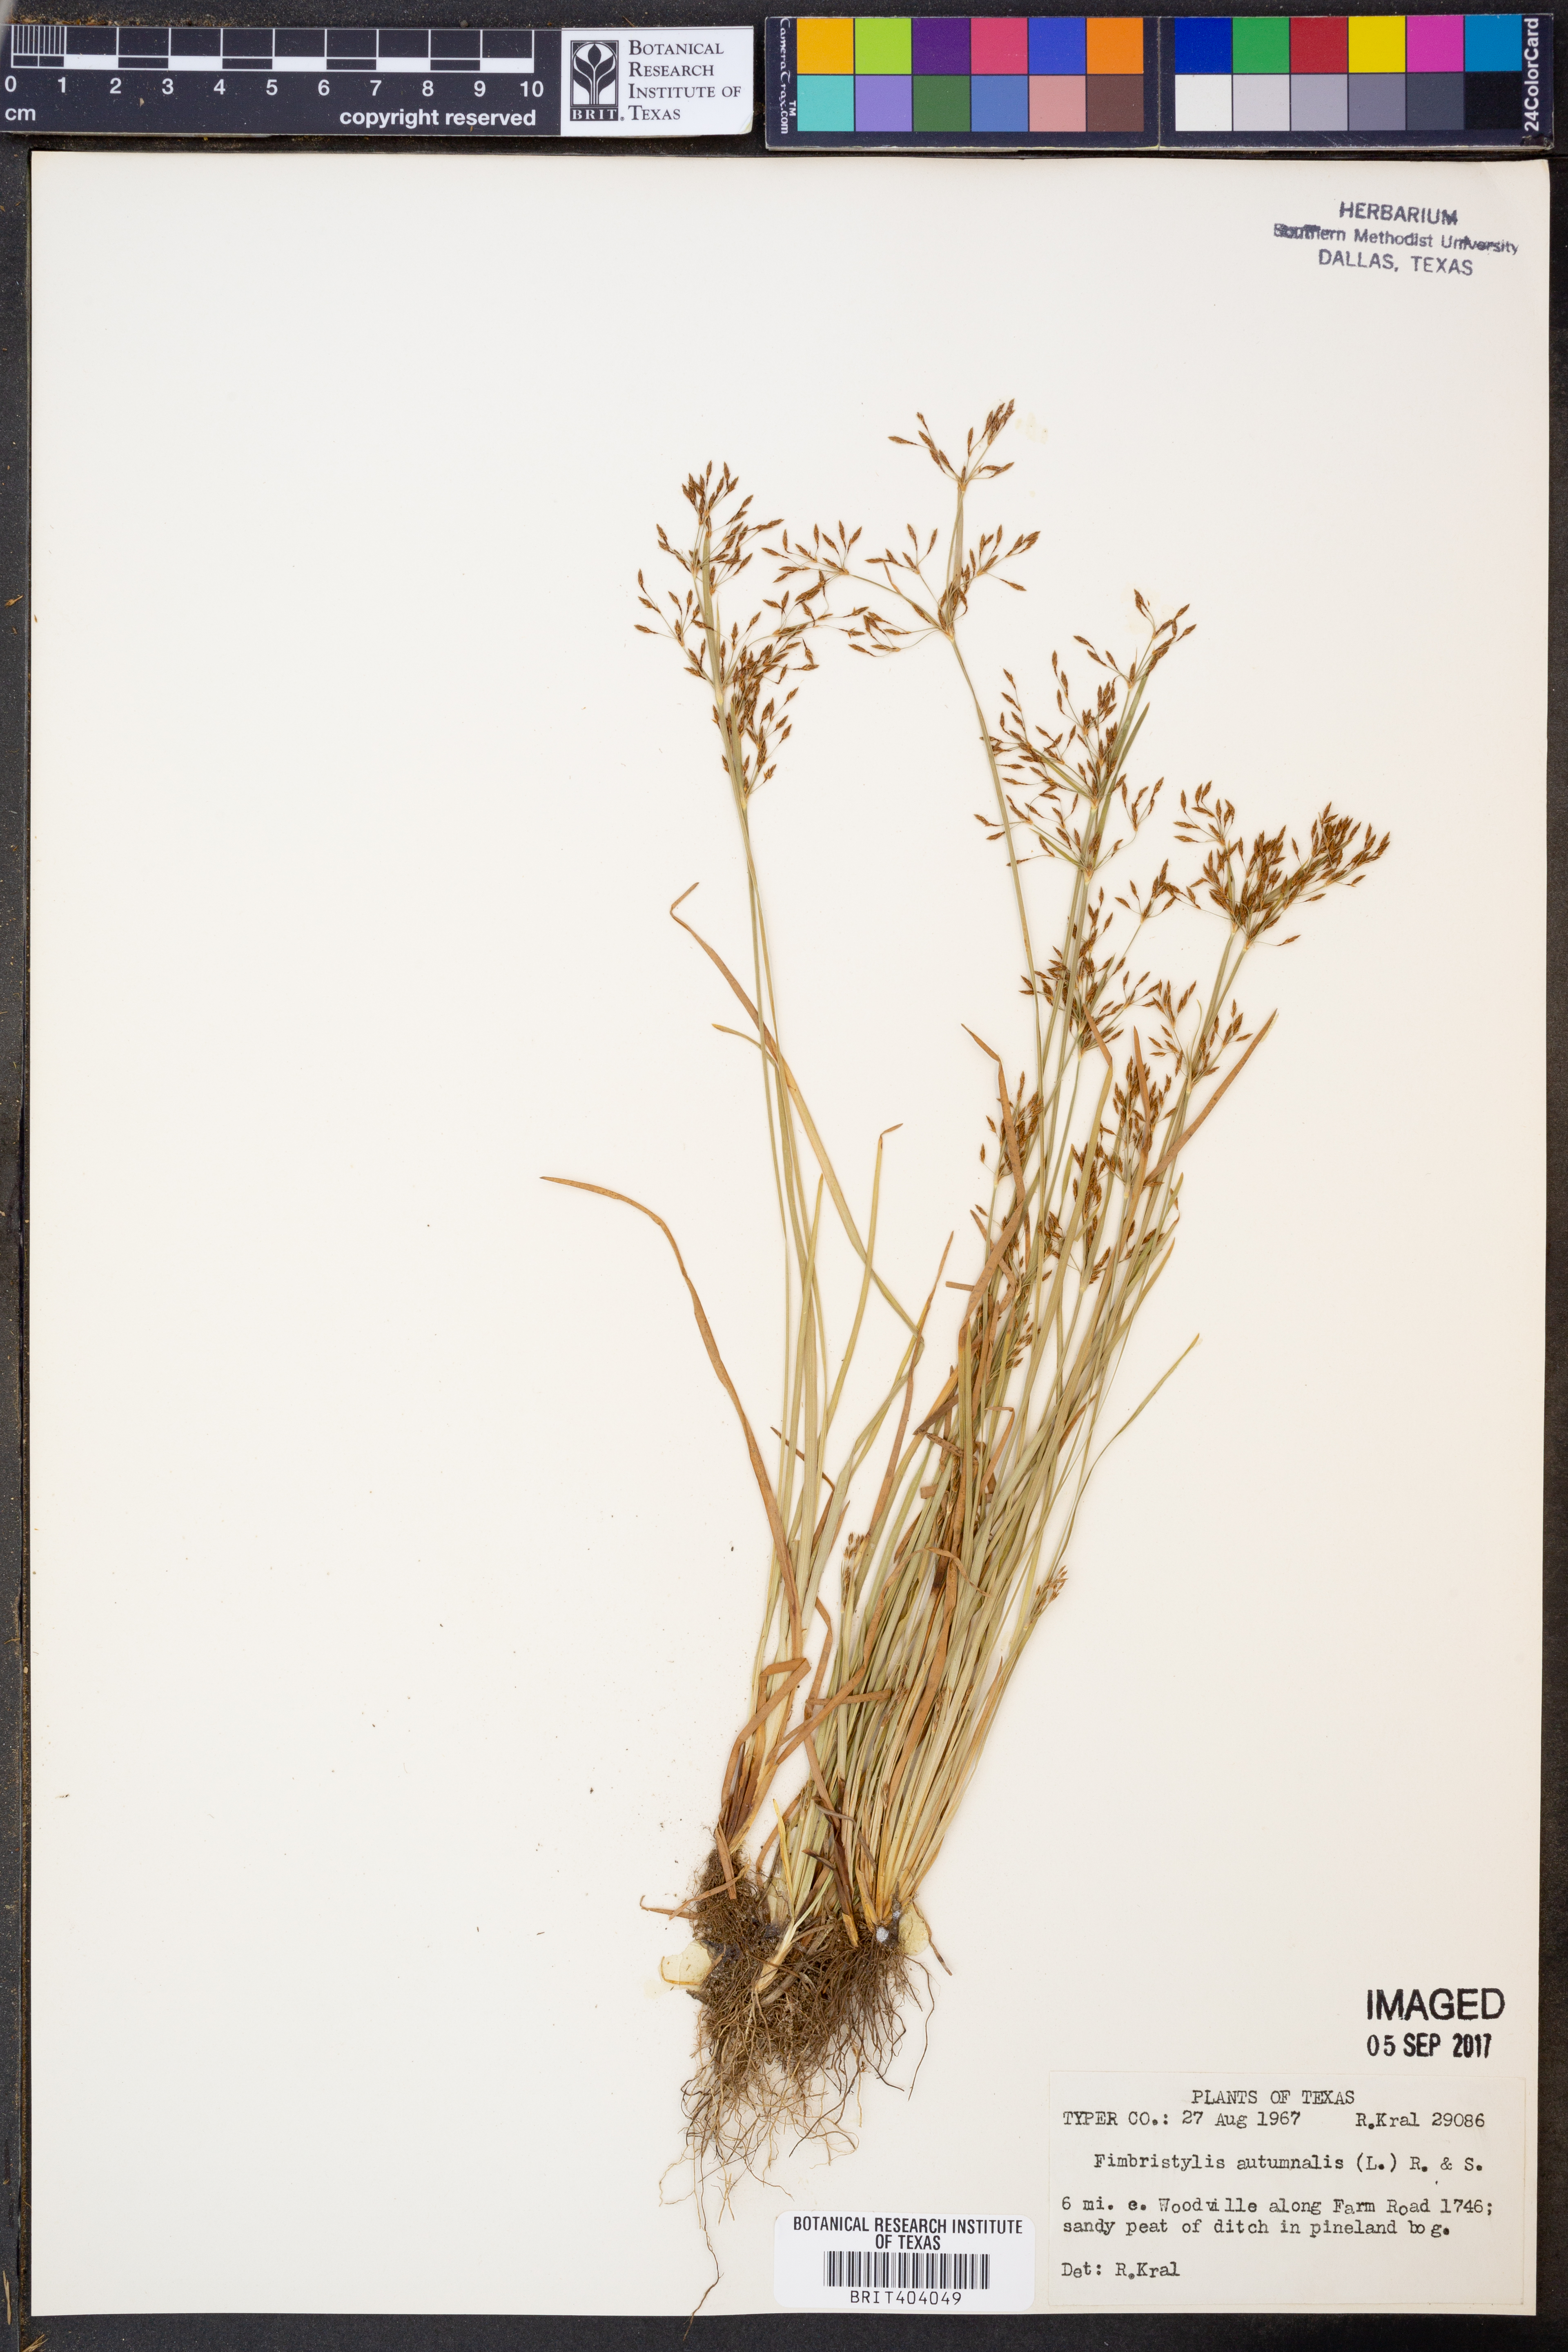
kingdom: Plantae
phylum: Tracheophyta
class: Liliopsida
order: Poales
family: Cyperaceae
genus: Fimbristylis
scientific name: Fimbristylis autumnalis
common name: Slender fimbristylis
